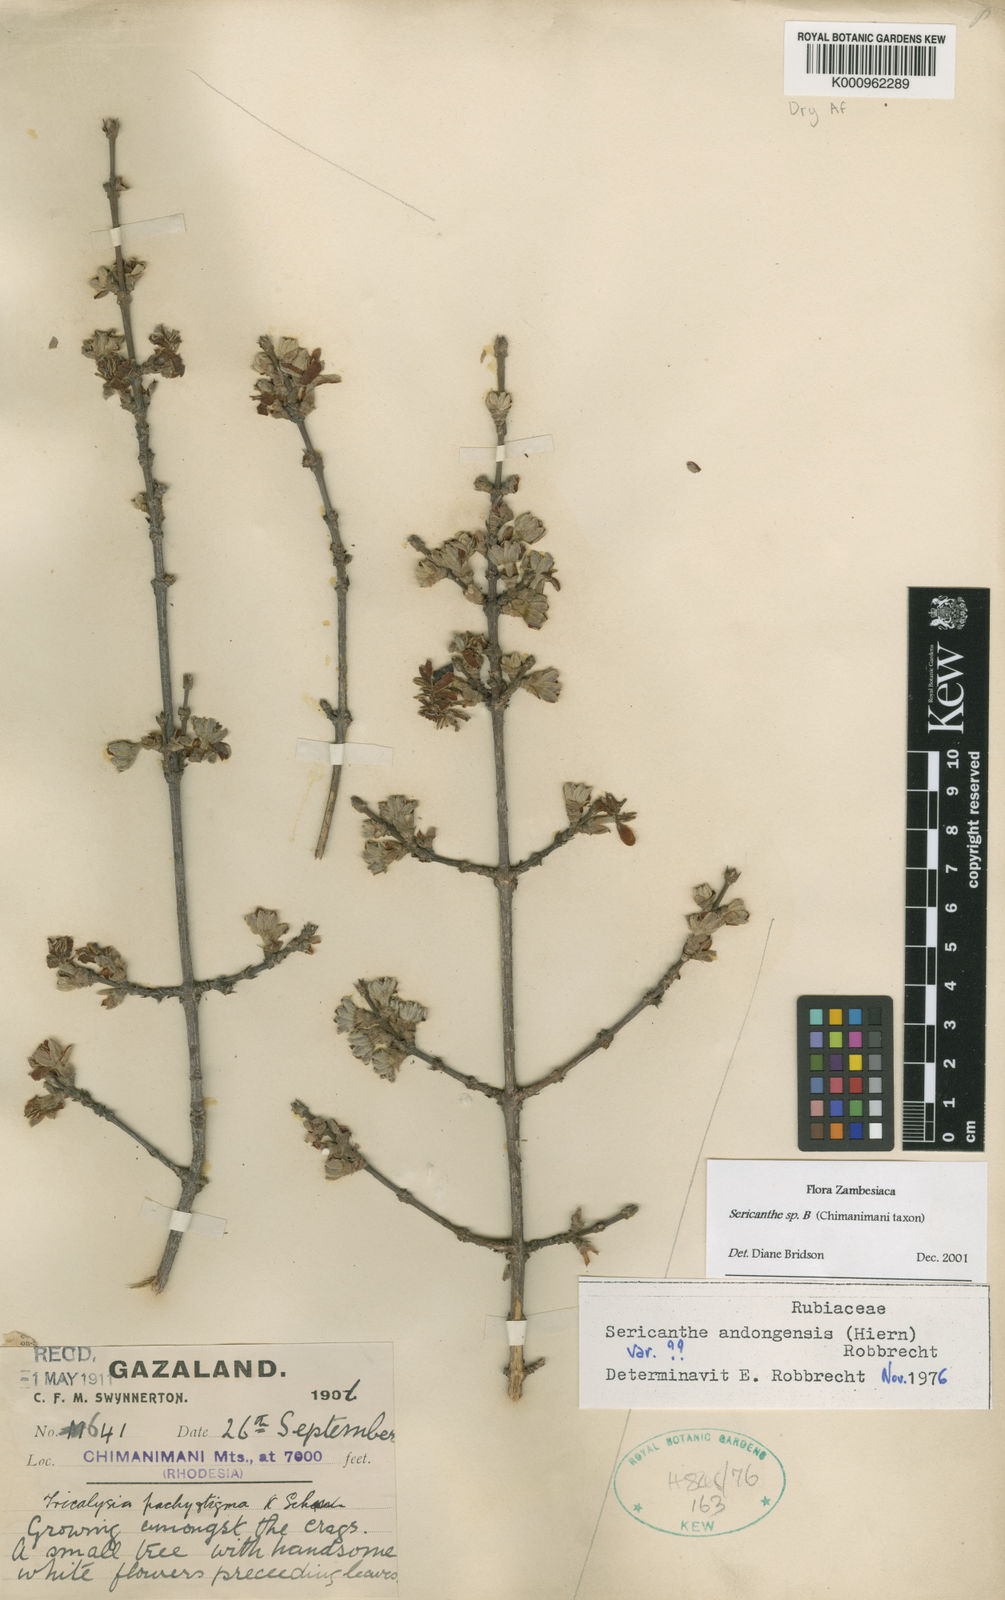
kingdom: Plantae
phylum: Tracheophyta
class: Magnoliopsida
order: Gentianales
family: Rubiaceae
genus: Sericanthe
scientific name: Sericanthe andongensis
